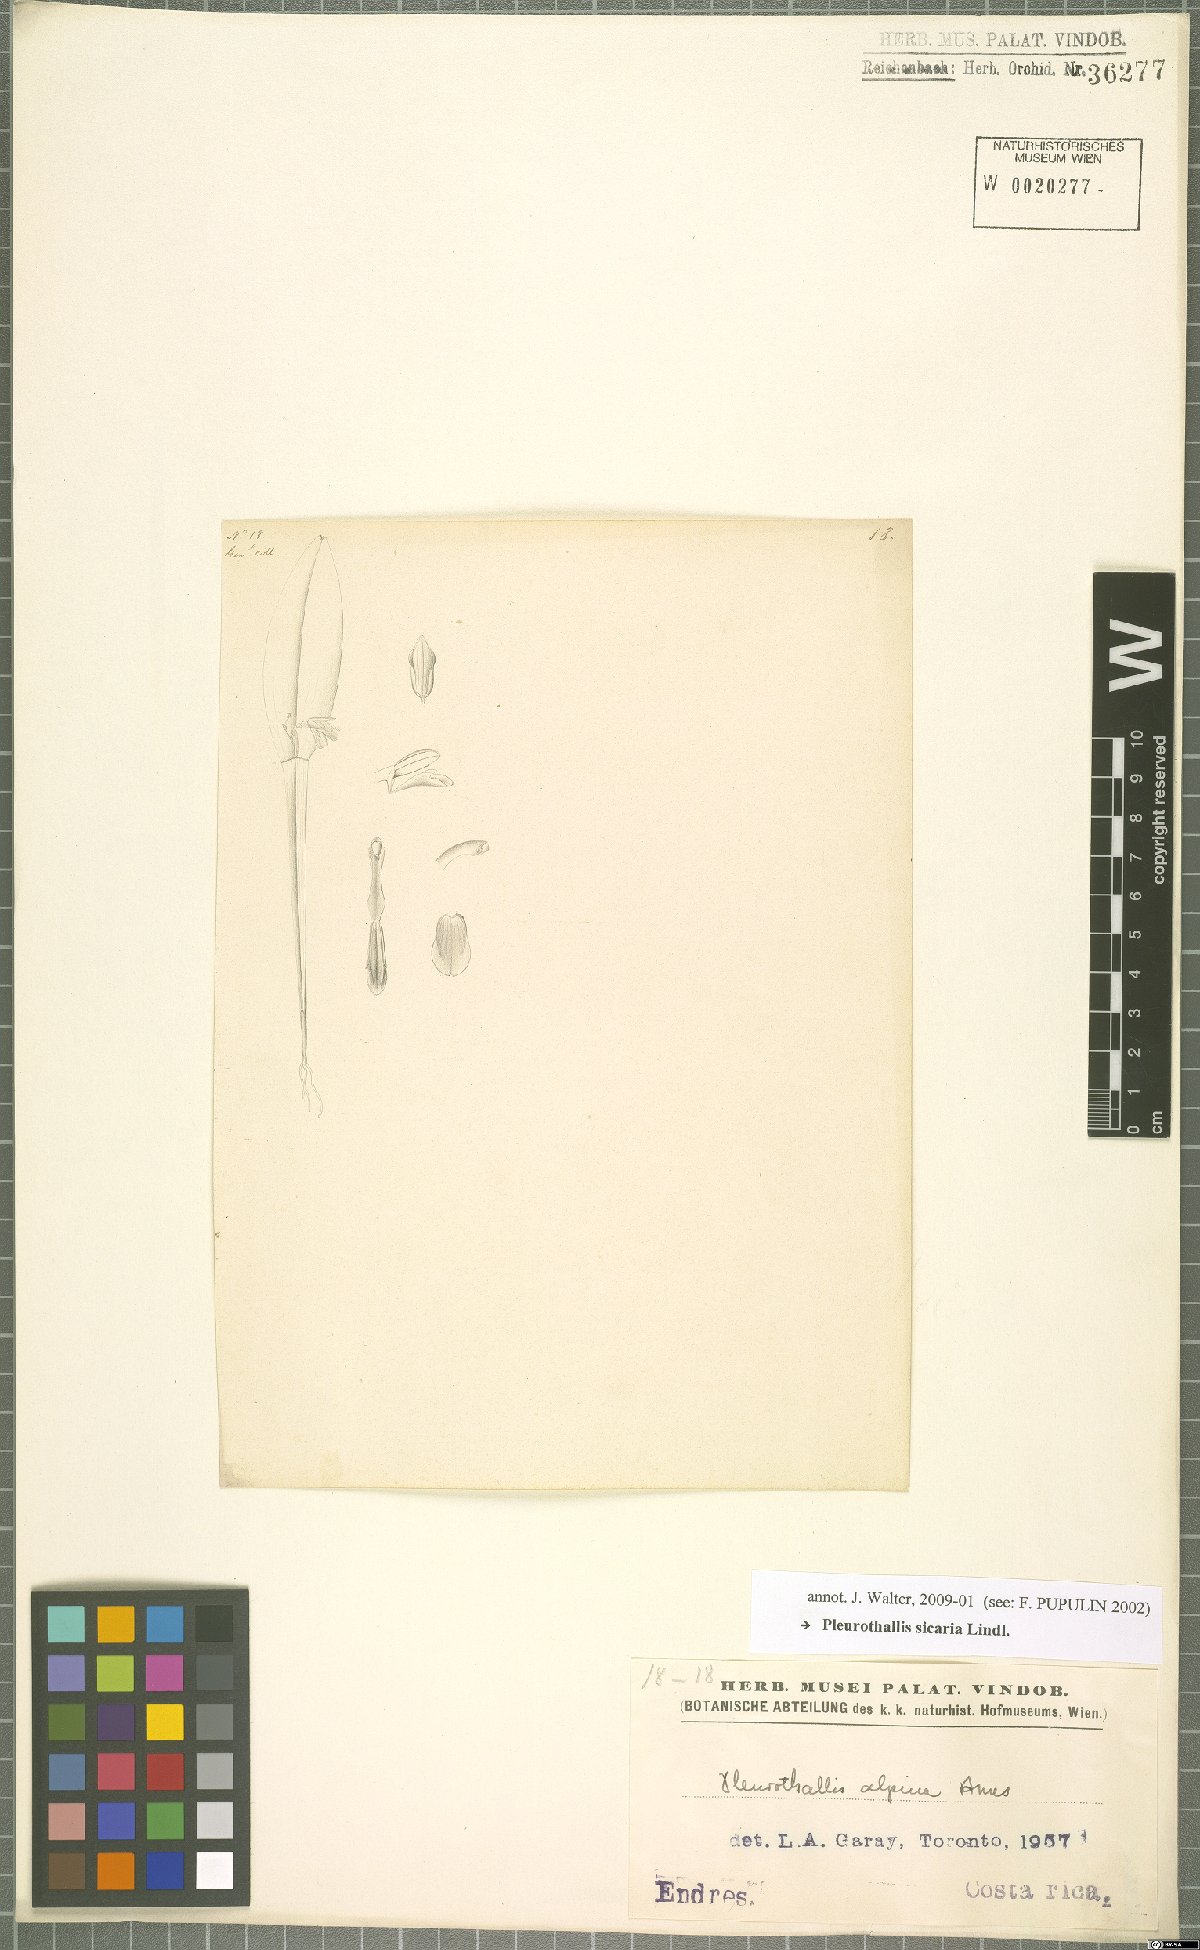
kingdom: Plantae
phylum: Tracheophyta
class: Liliopsida
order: Asparagales
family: Orchidaceae
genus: Acianthera
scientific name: Acianthera sicaria
